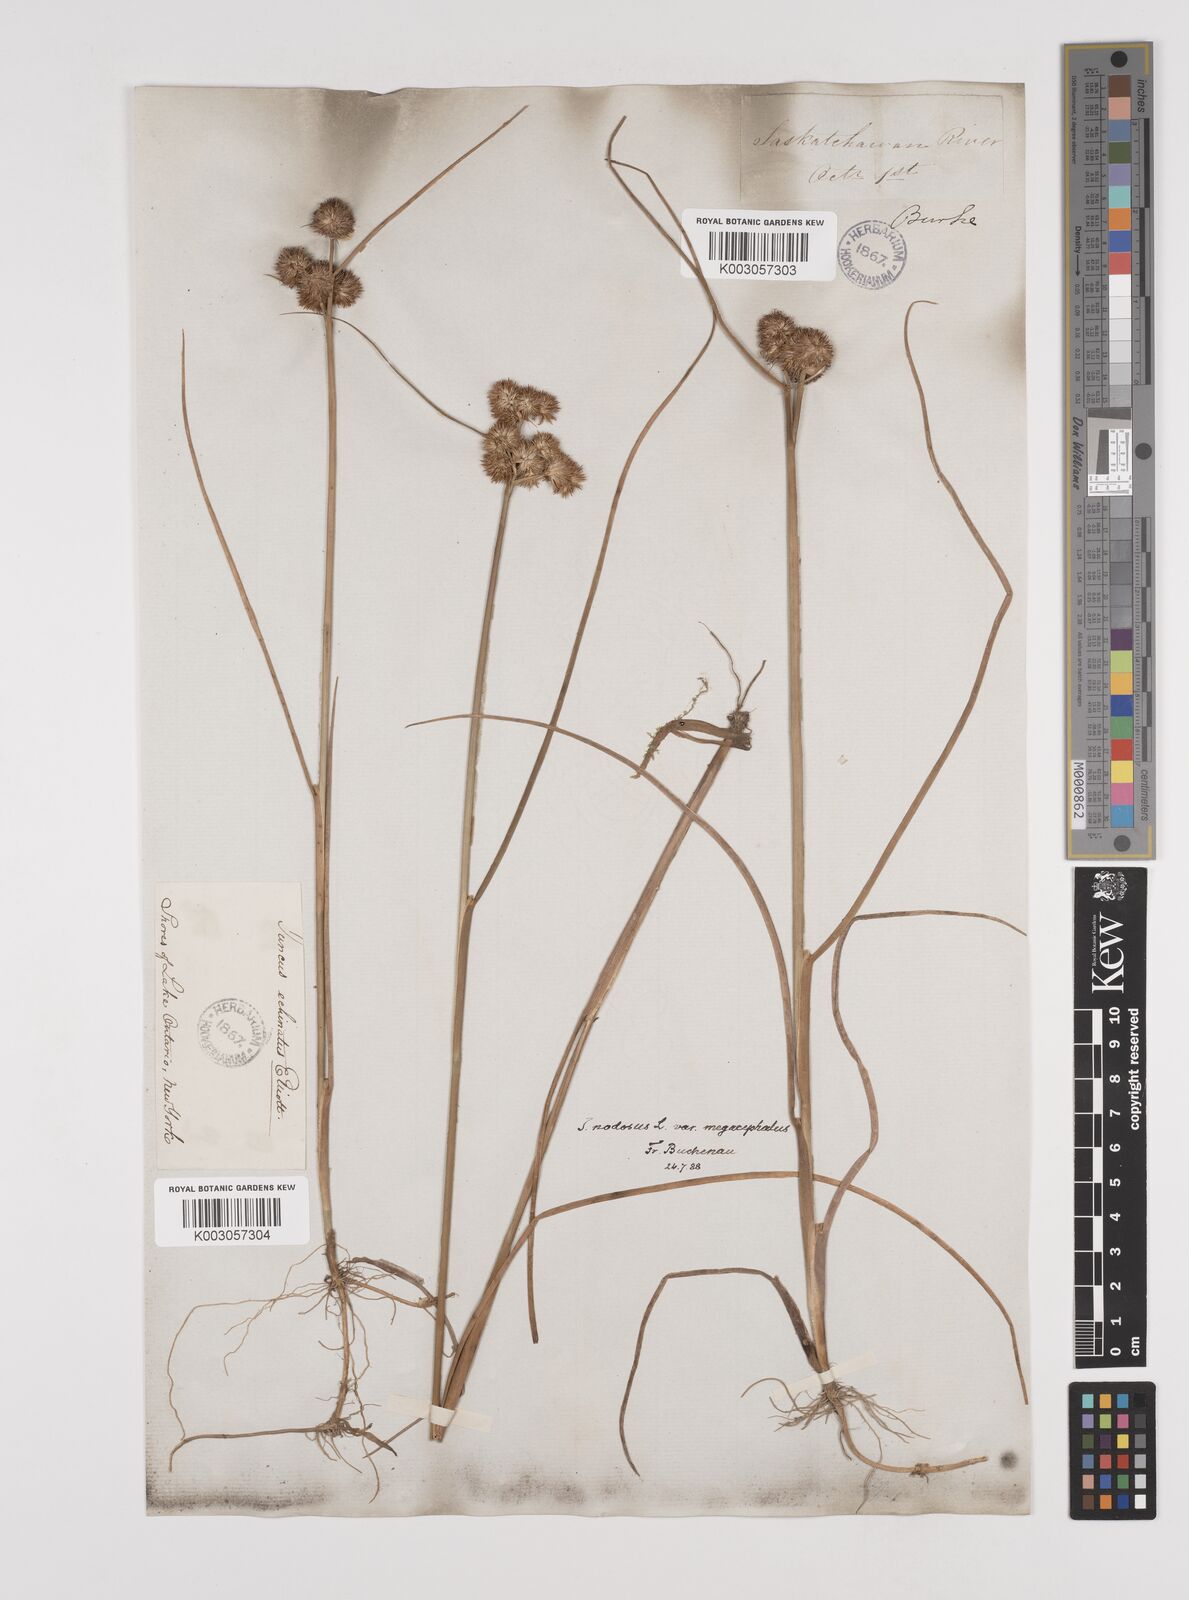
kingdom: Plantae
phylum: Tracheophyta
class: Liliopsida
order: Poales
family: Juncaceae
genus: Juncus
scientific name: Juncus nodosus
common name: Knotted rush
